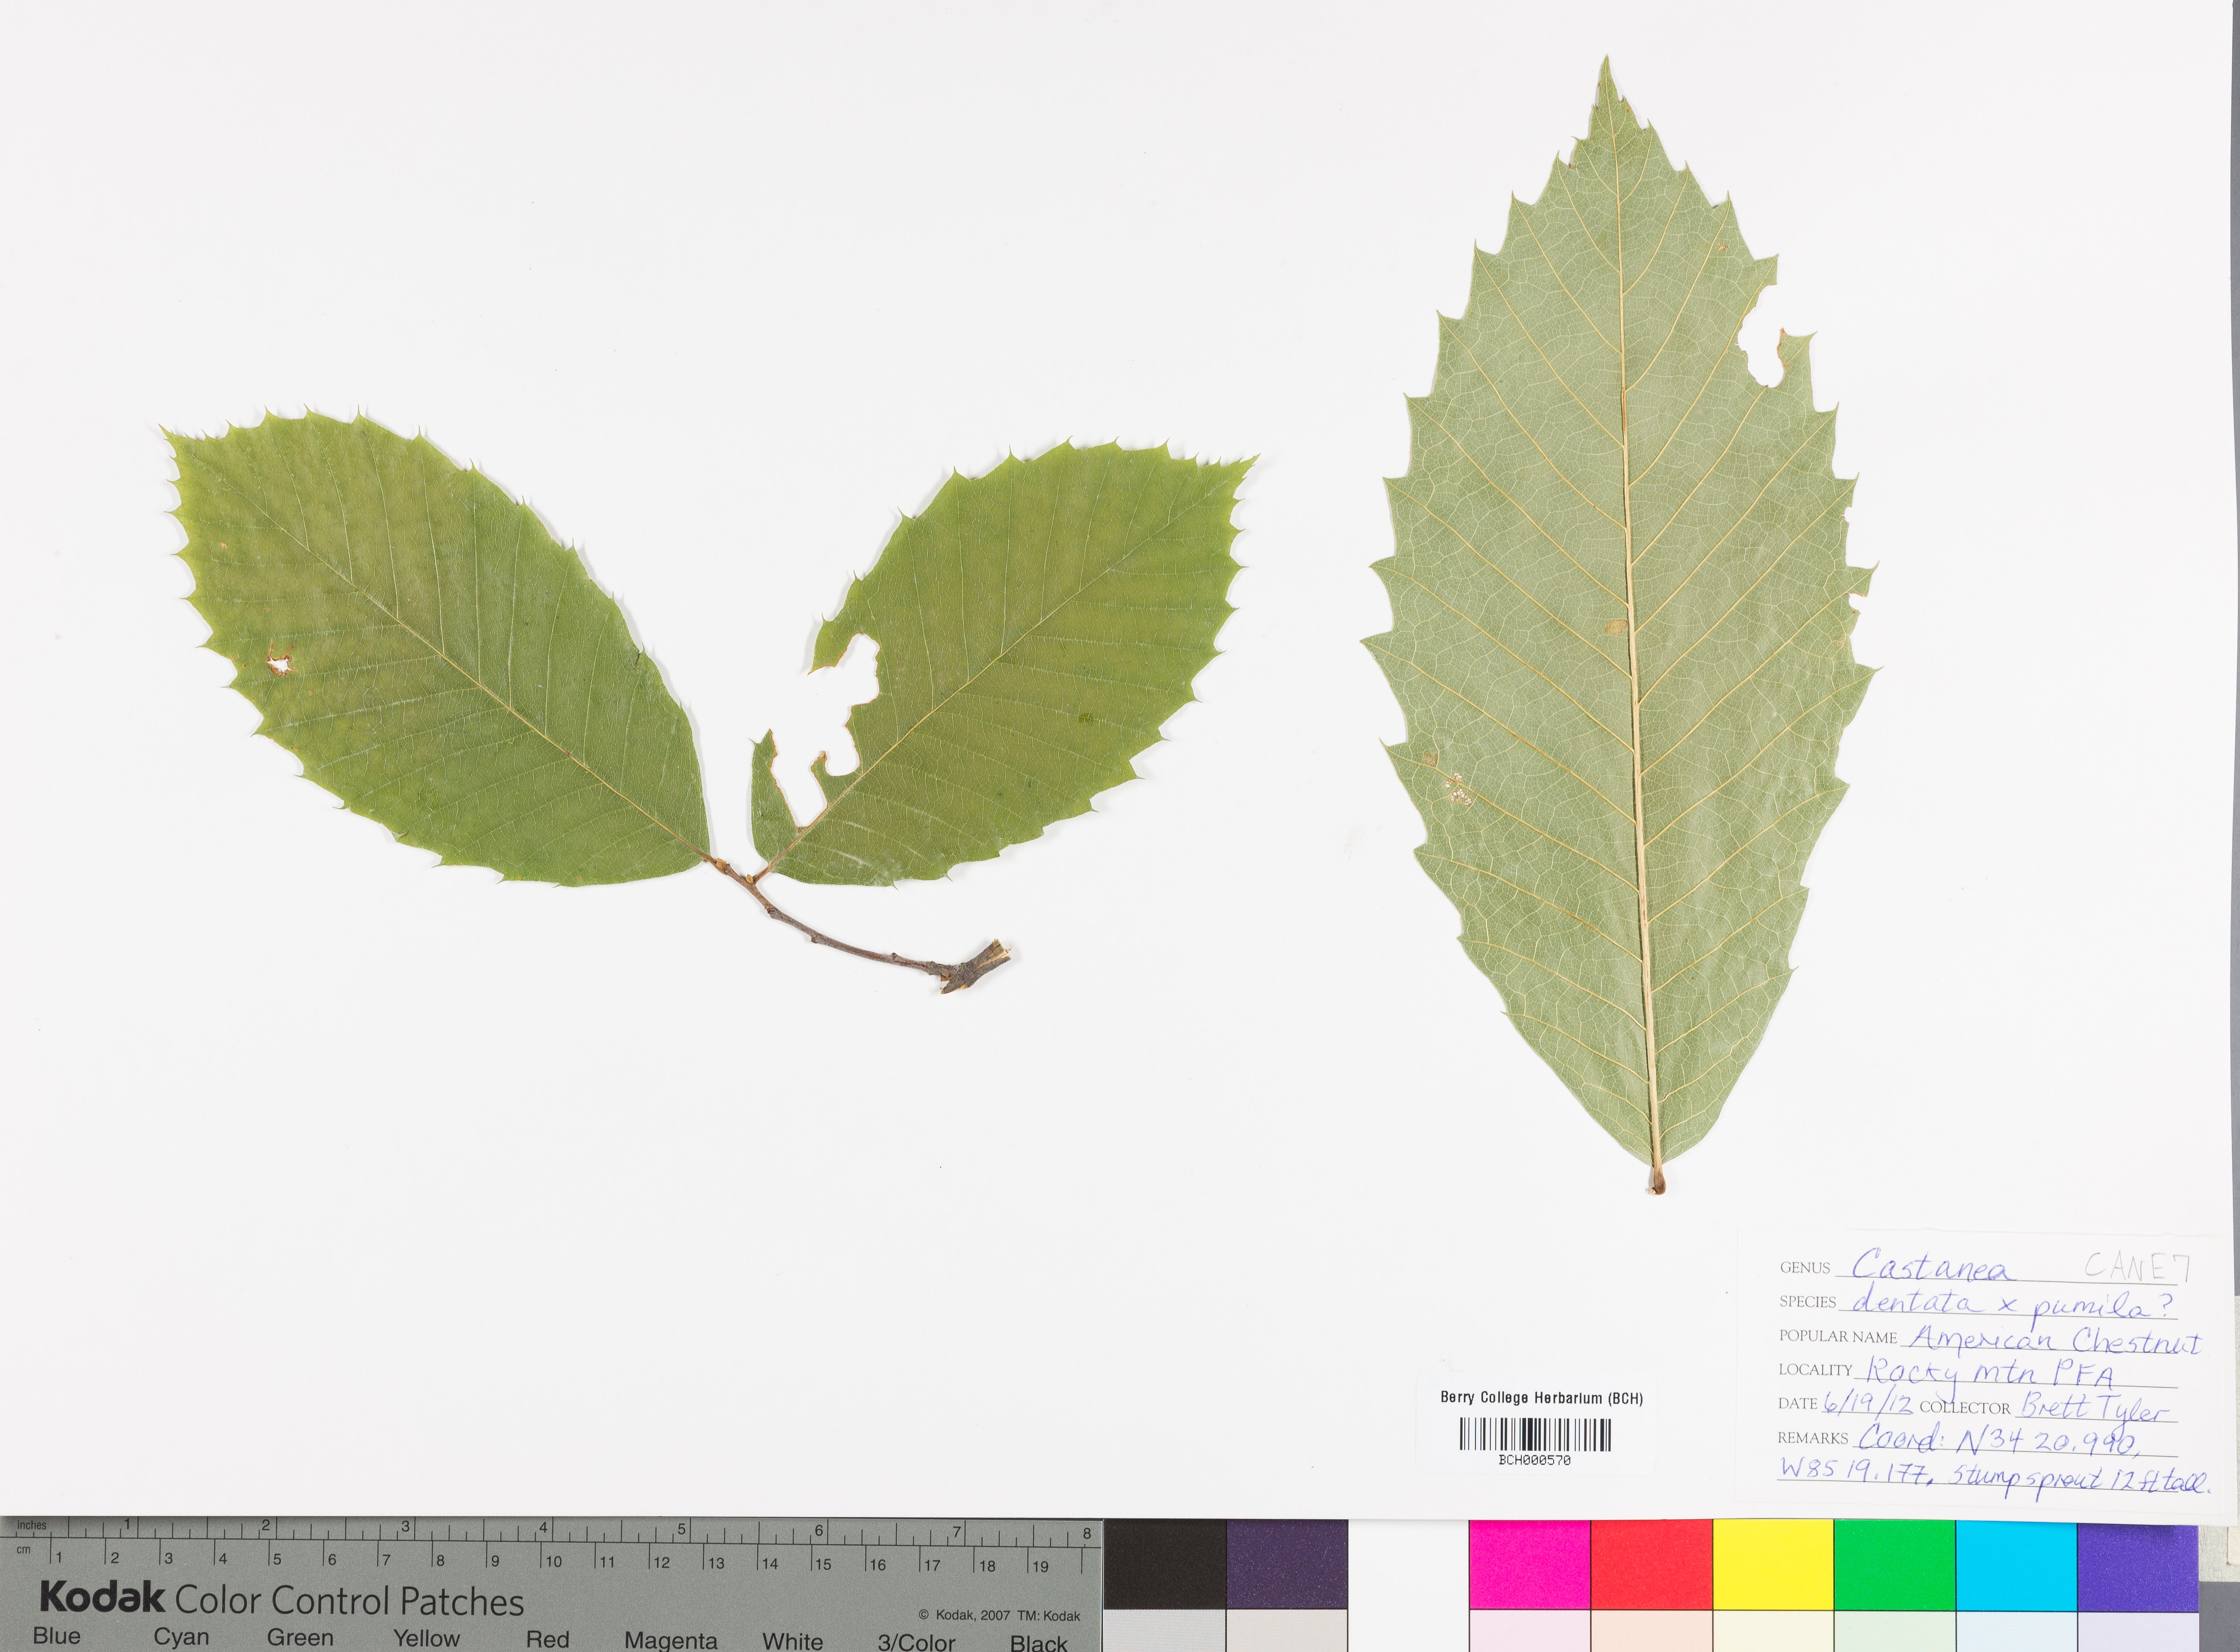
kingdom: Plantae
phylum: Tracheophyta
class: Magnoliopsida
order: Fagales
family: Fagaceae
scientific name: Fagaceae
